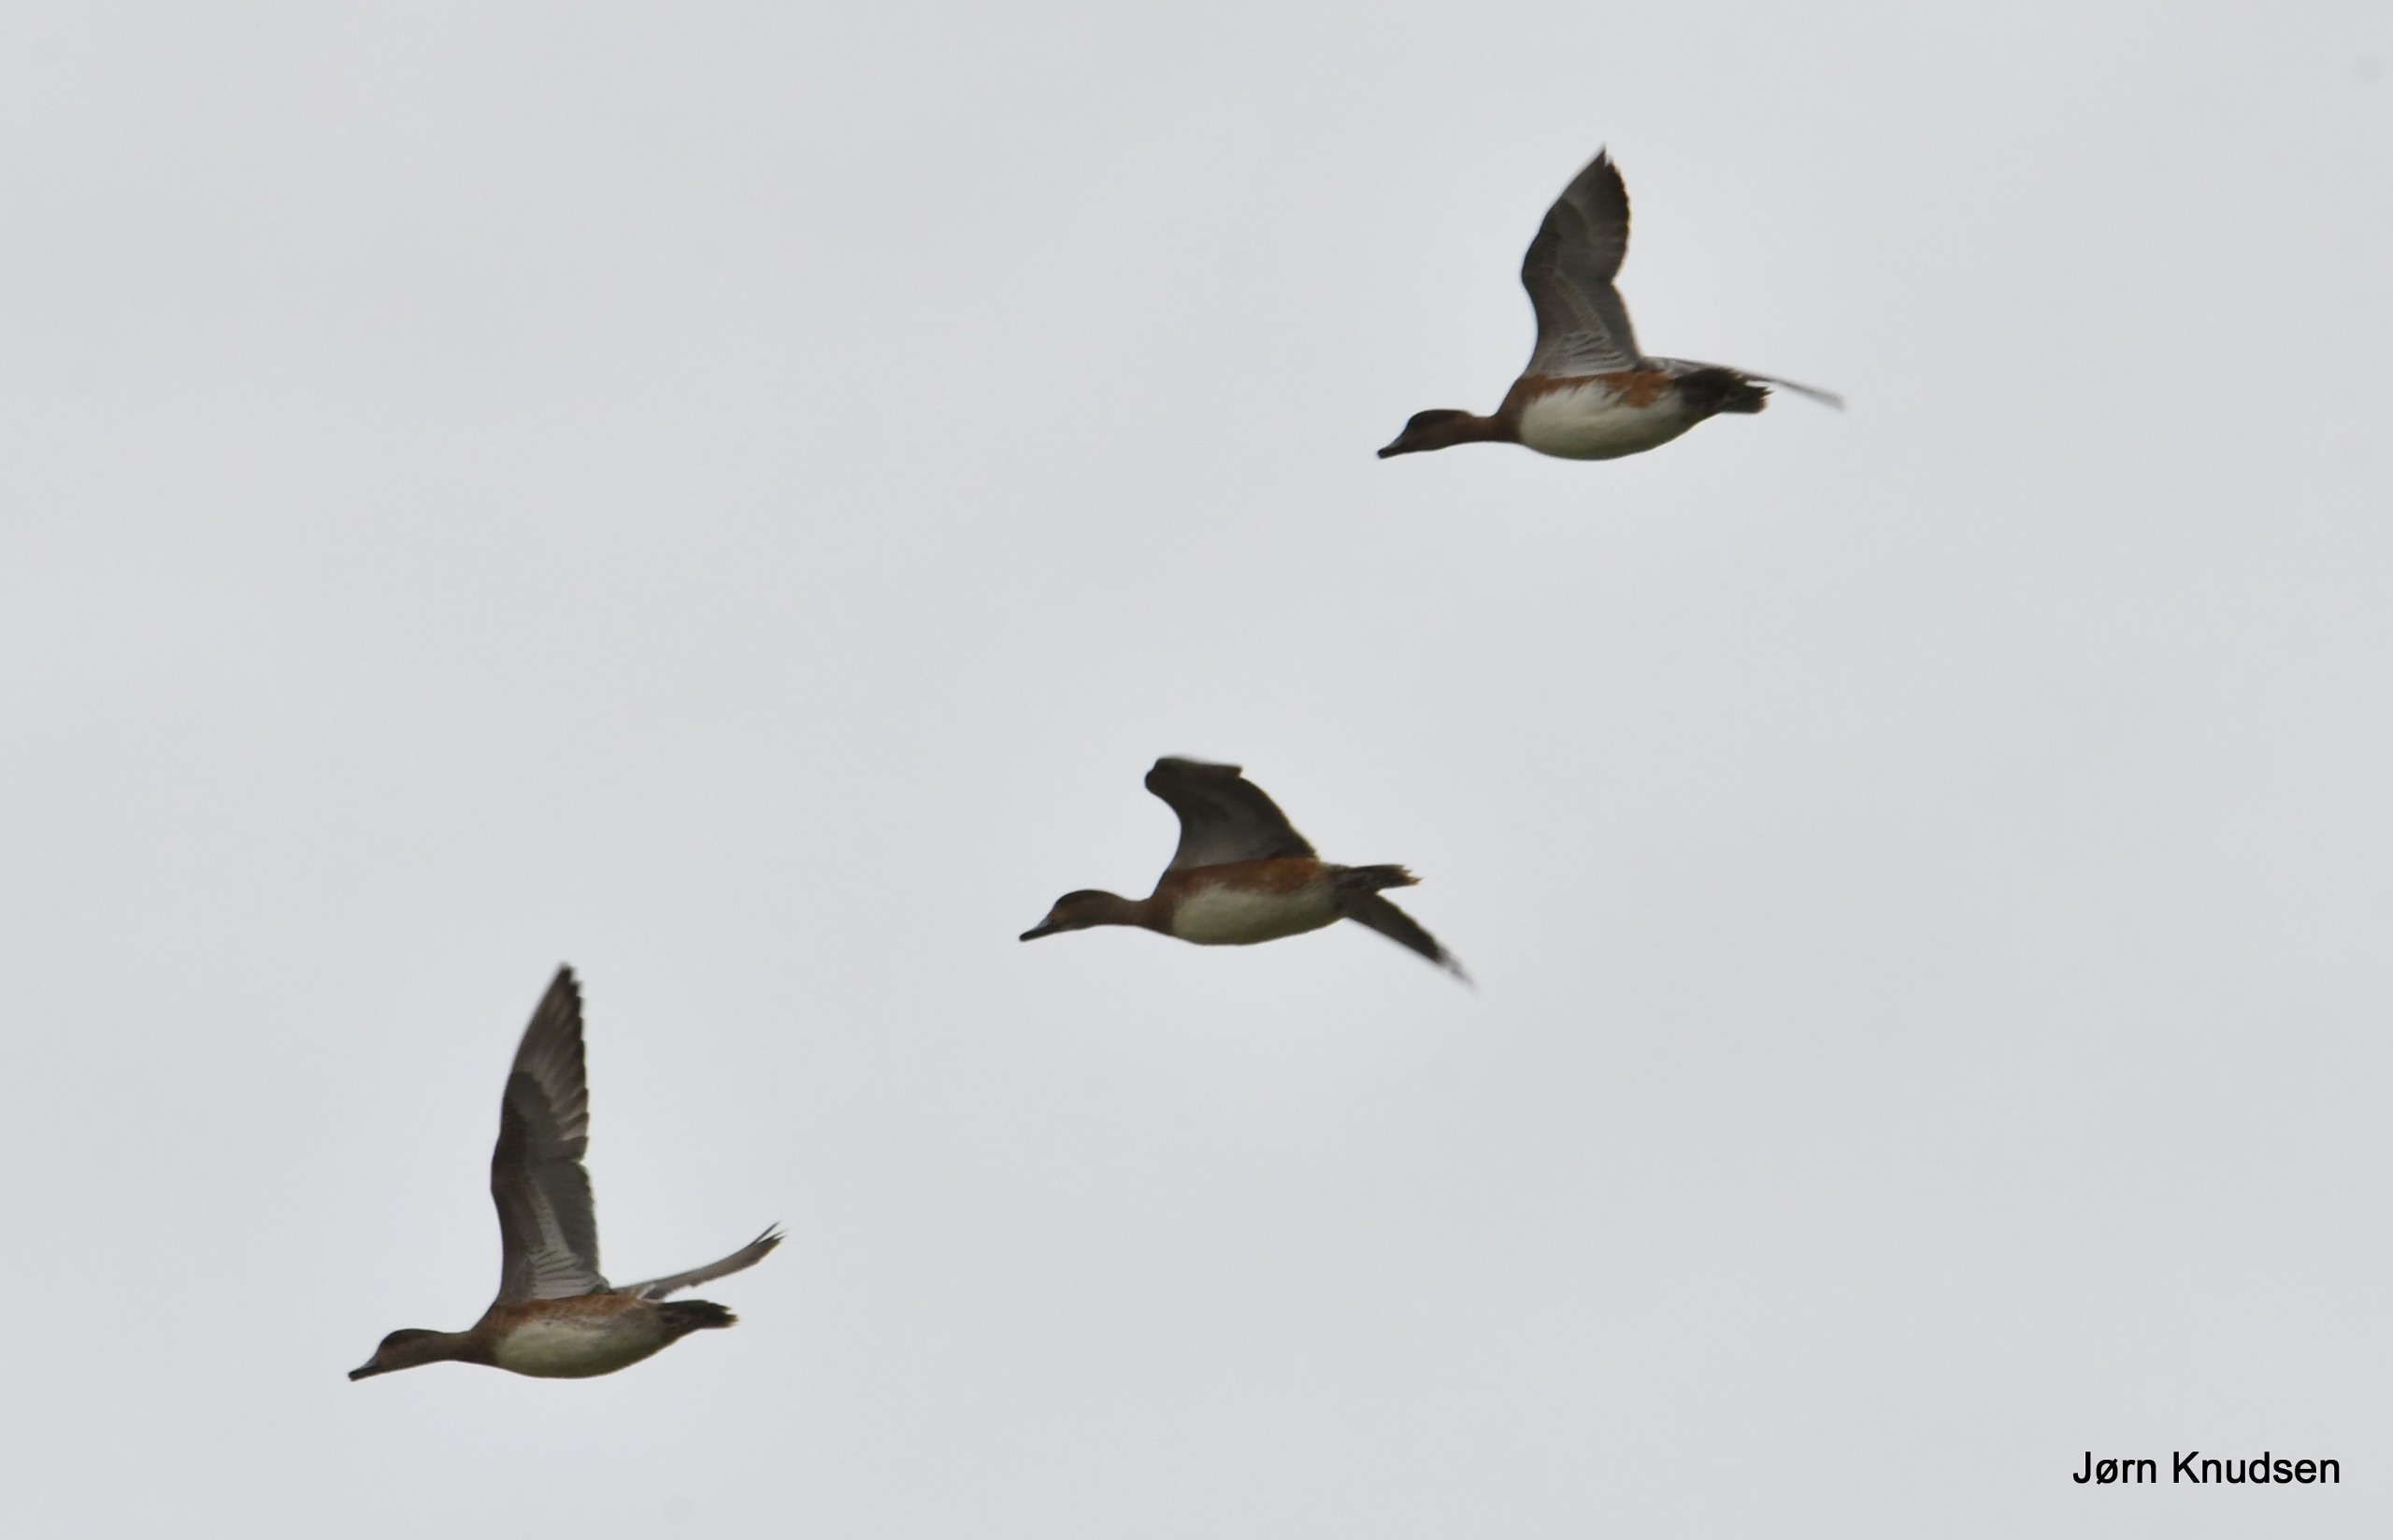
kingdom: Animalia
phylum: Chordata
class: Aves
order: Anseriformes
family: Anatidae
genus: Mareca
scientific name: Mareca penelope
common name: Pibeand
